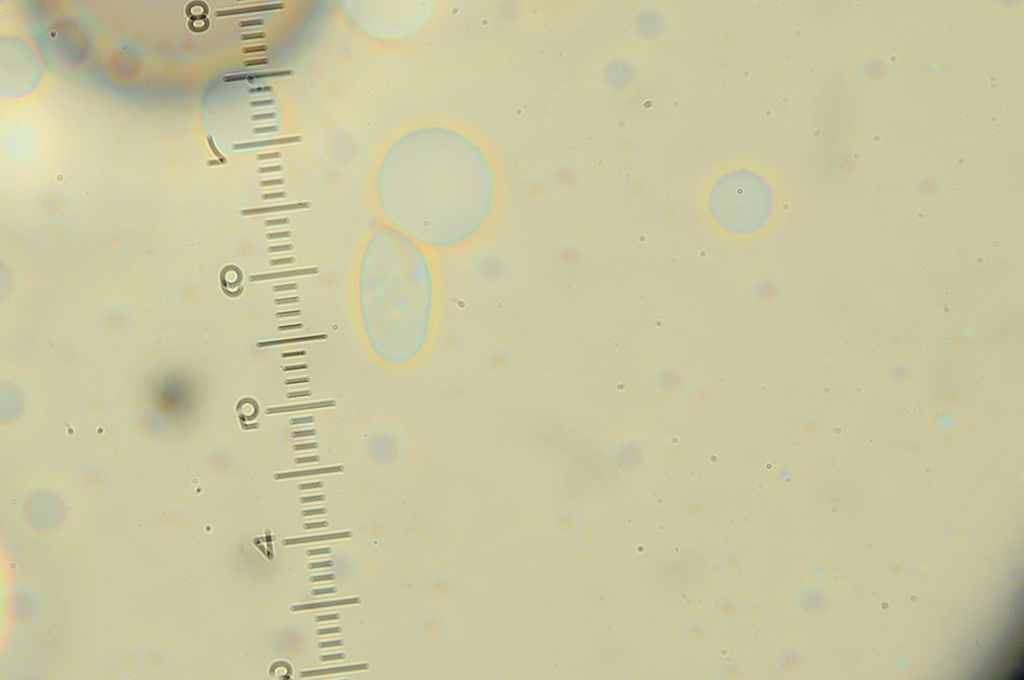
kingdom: Fungi
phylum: Basidiomycota
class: Agaricomycetes
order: Agaricales
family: Clavariaceae
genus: Clavaria
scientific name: Clavaria
